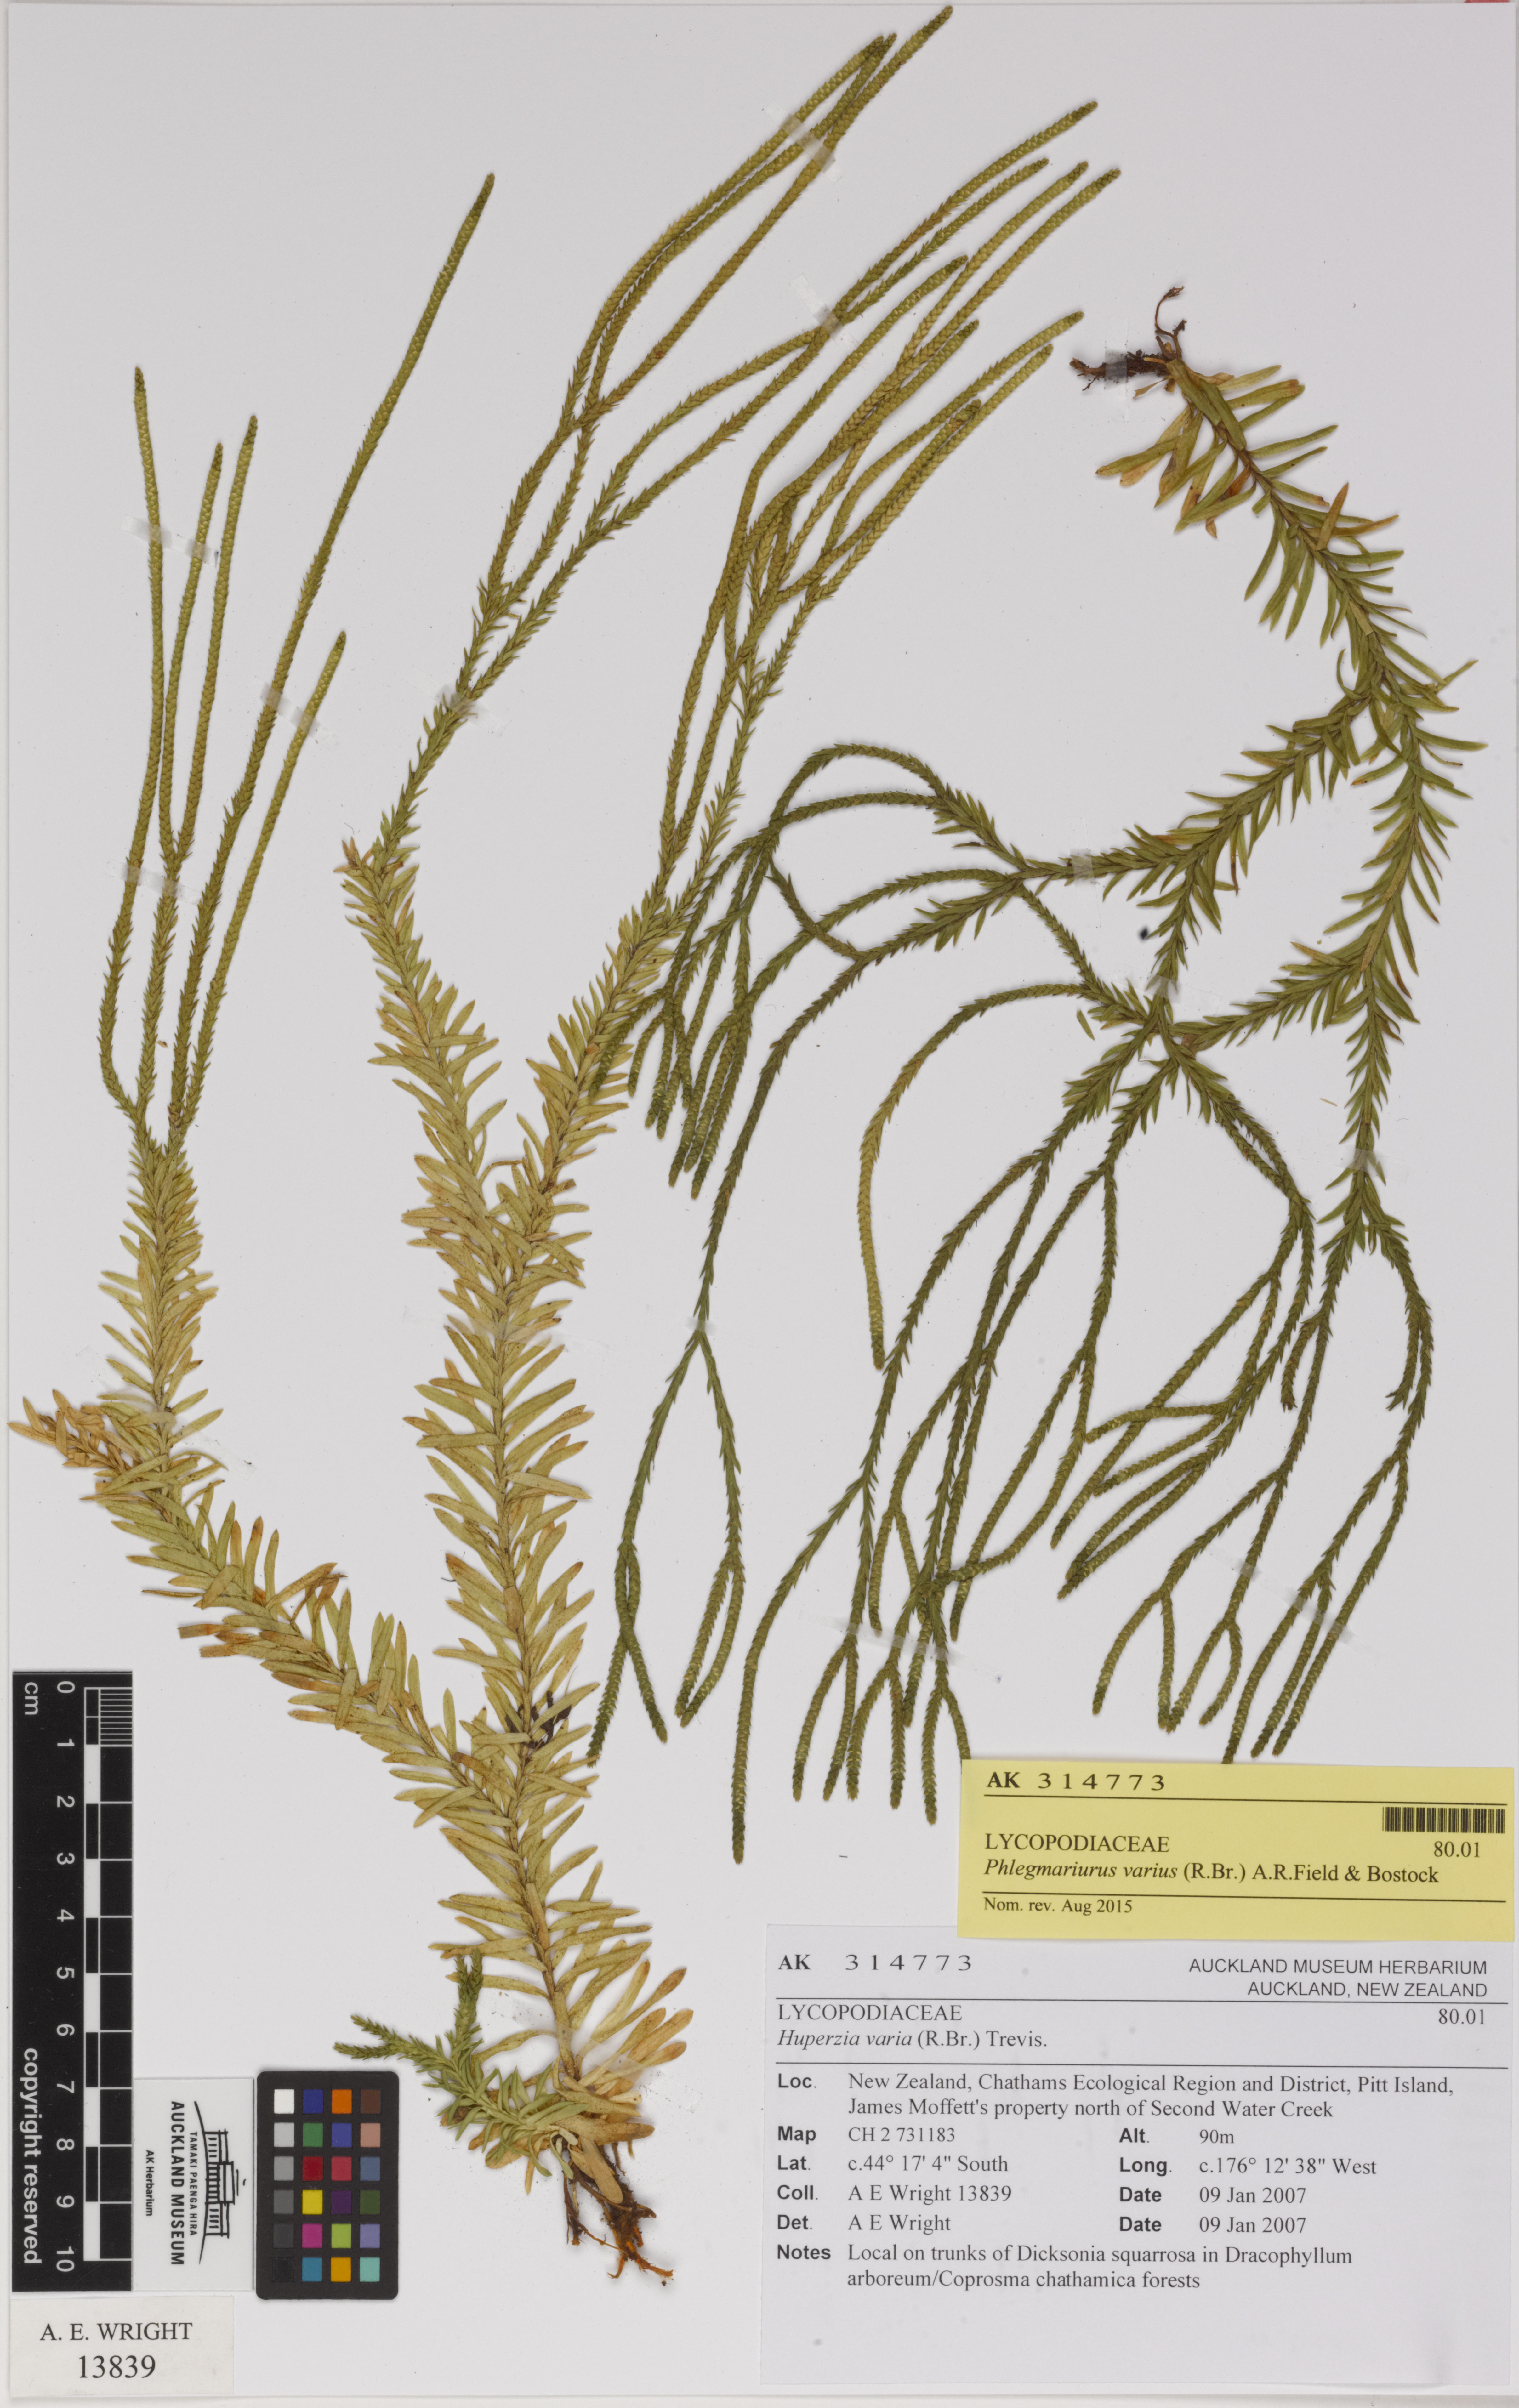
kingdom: Plantae
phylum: Tracheophyta
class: Lycopodiopsida
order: Lycopodiales
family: Lycopodiaceae
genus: Phlegmariurus
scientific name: Phlegmariurus billardierei
